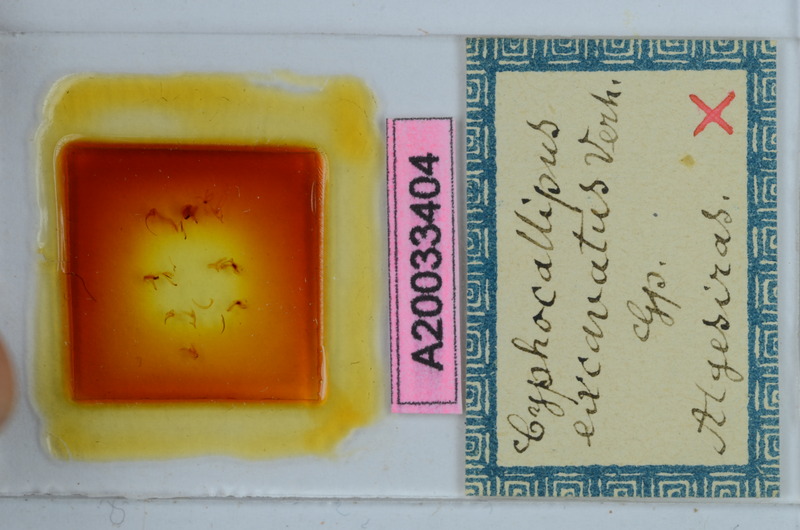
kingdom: Animalia
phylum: Arthropoda
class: Diplopoda
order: Callipodida
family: Dorypetalidae
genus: Cyphocallipus
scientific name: Cyphocallipus excavatus
